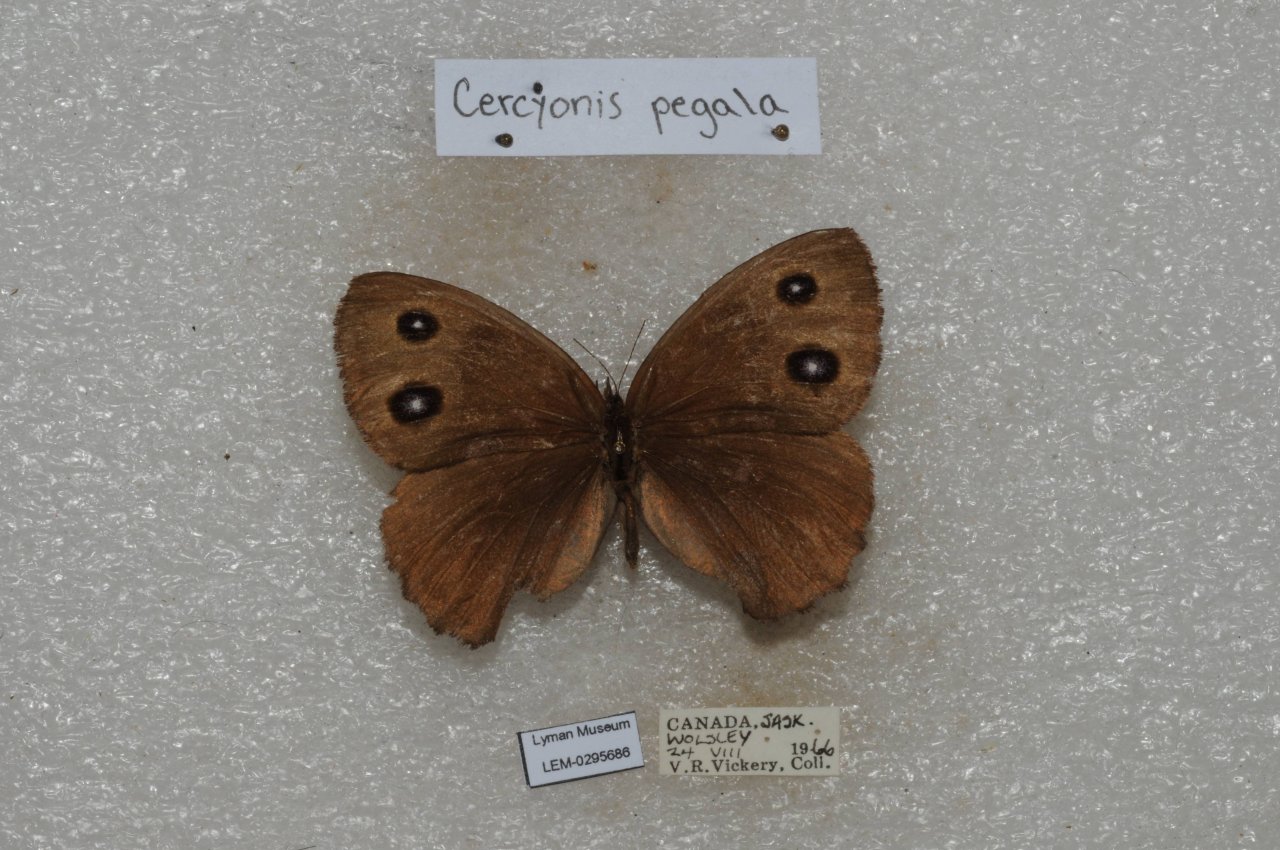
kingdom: Animalia
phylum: Arthropoda
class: Insecta
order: Lepidoptera
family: Nymphalidae
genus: Cercyonis
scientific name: Cercyonis pegala
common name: Common Wood-Nymph
